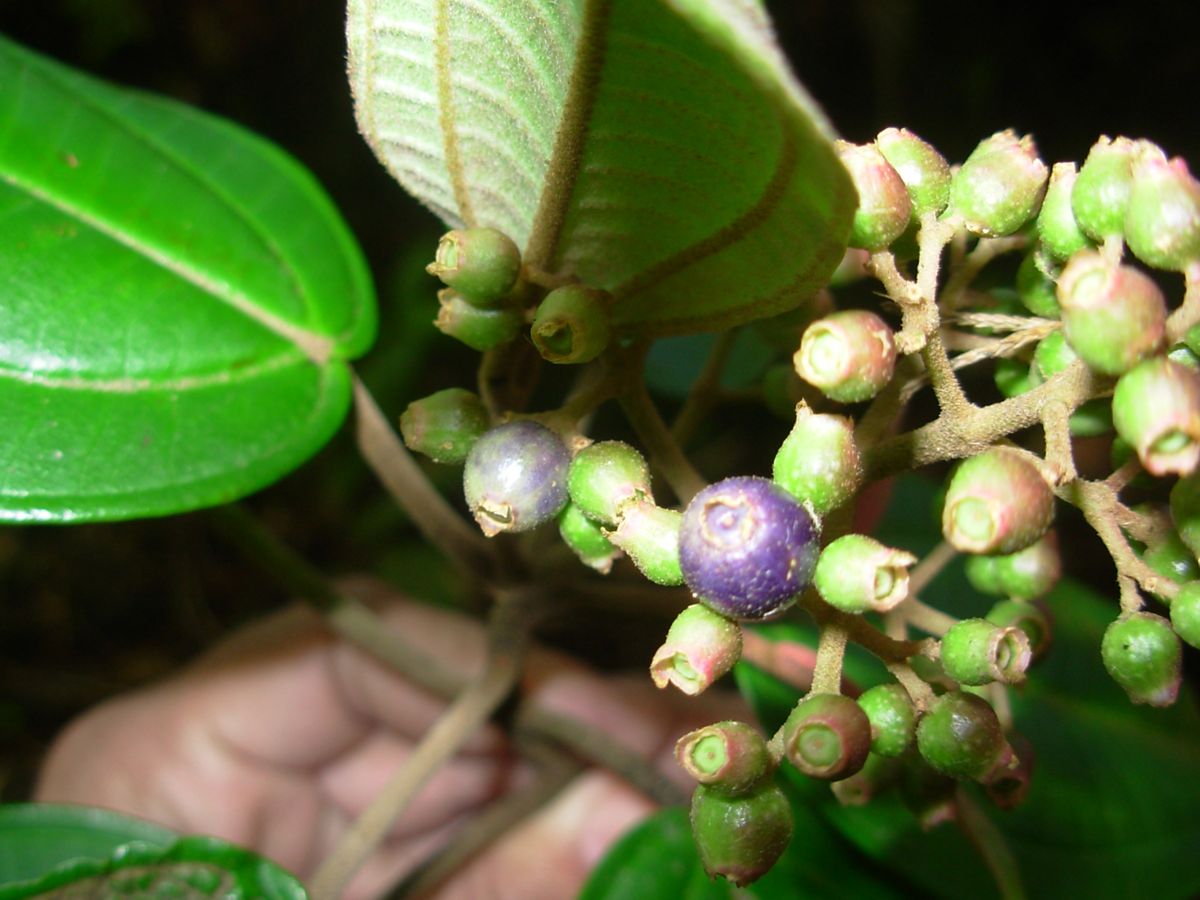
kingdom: Plantae
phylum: Tracheophyta
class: Magnoliopsida
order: Myrtales
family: Melastomataceae
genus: Miconia
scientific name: Miconia
